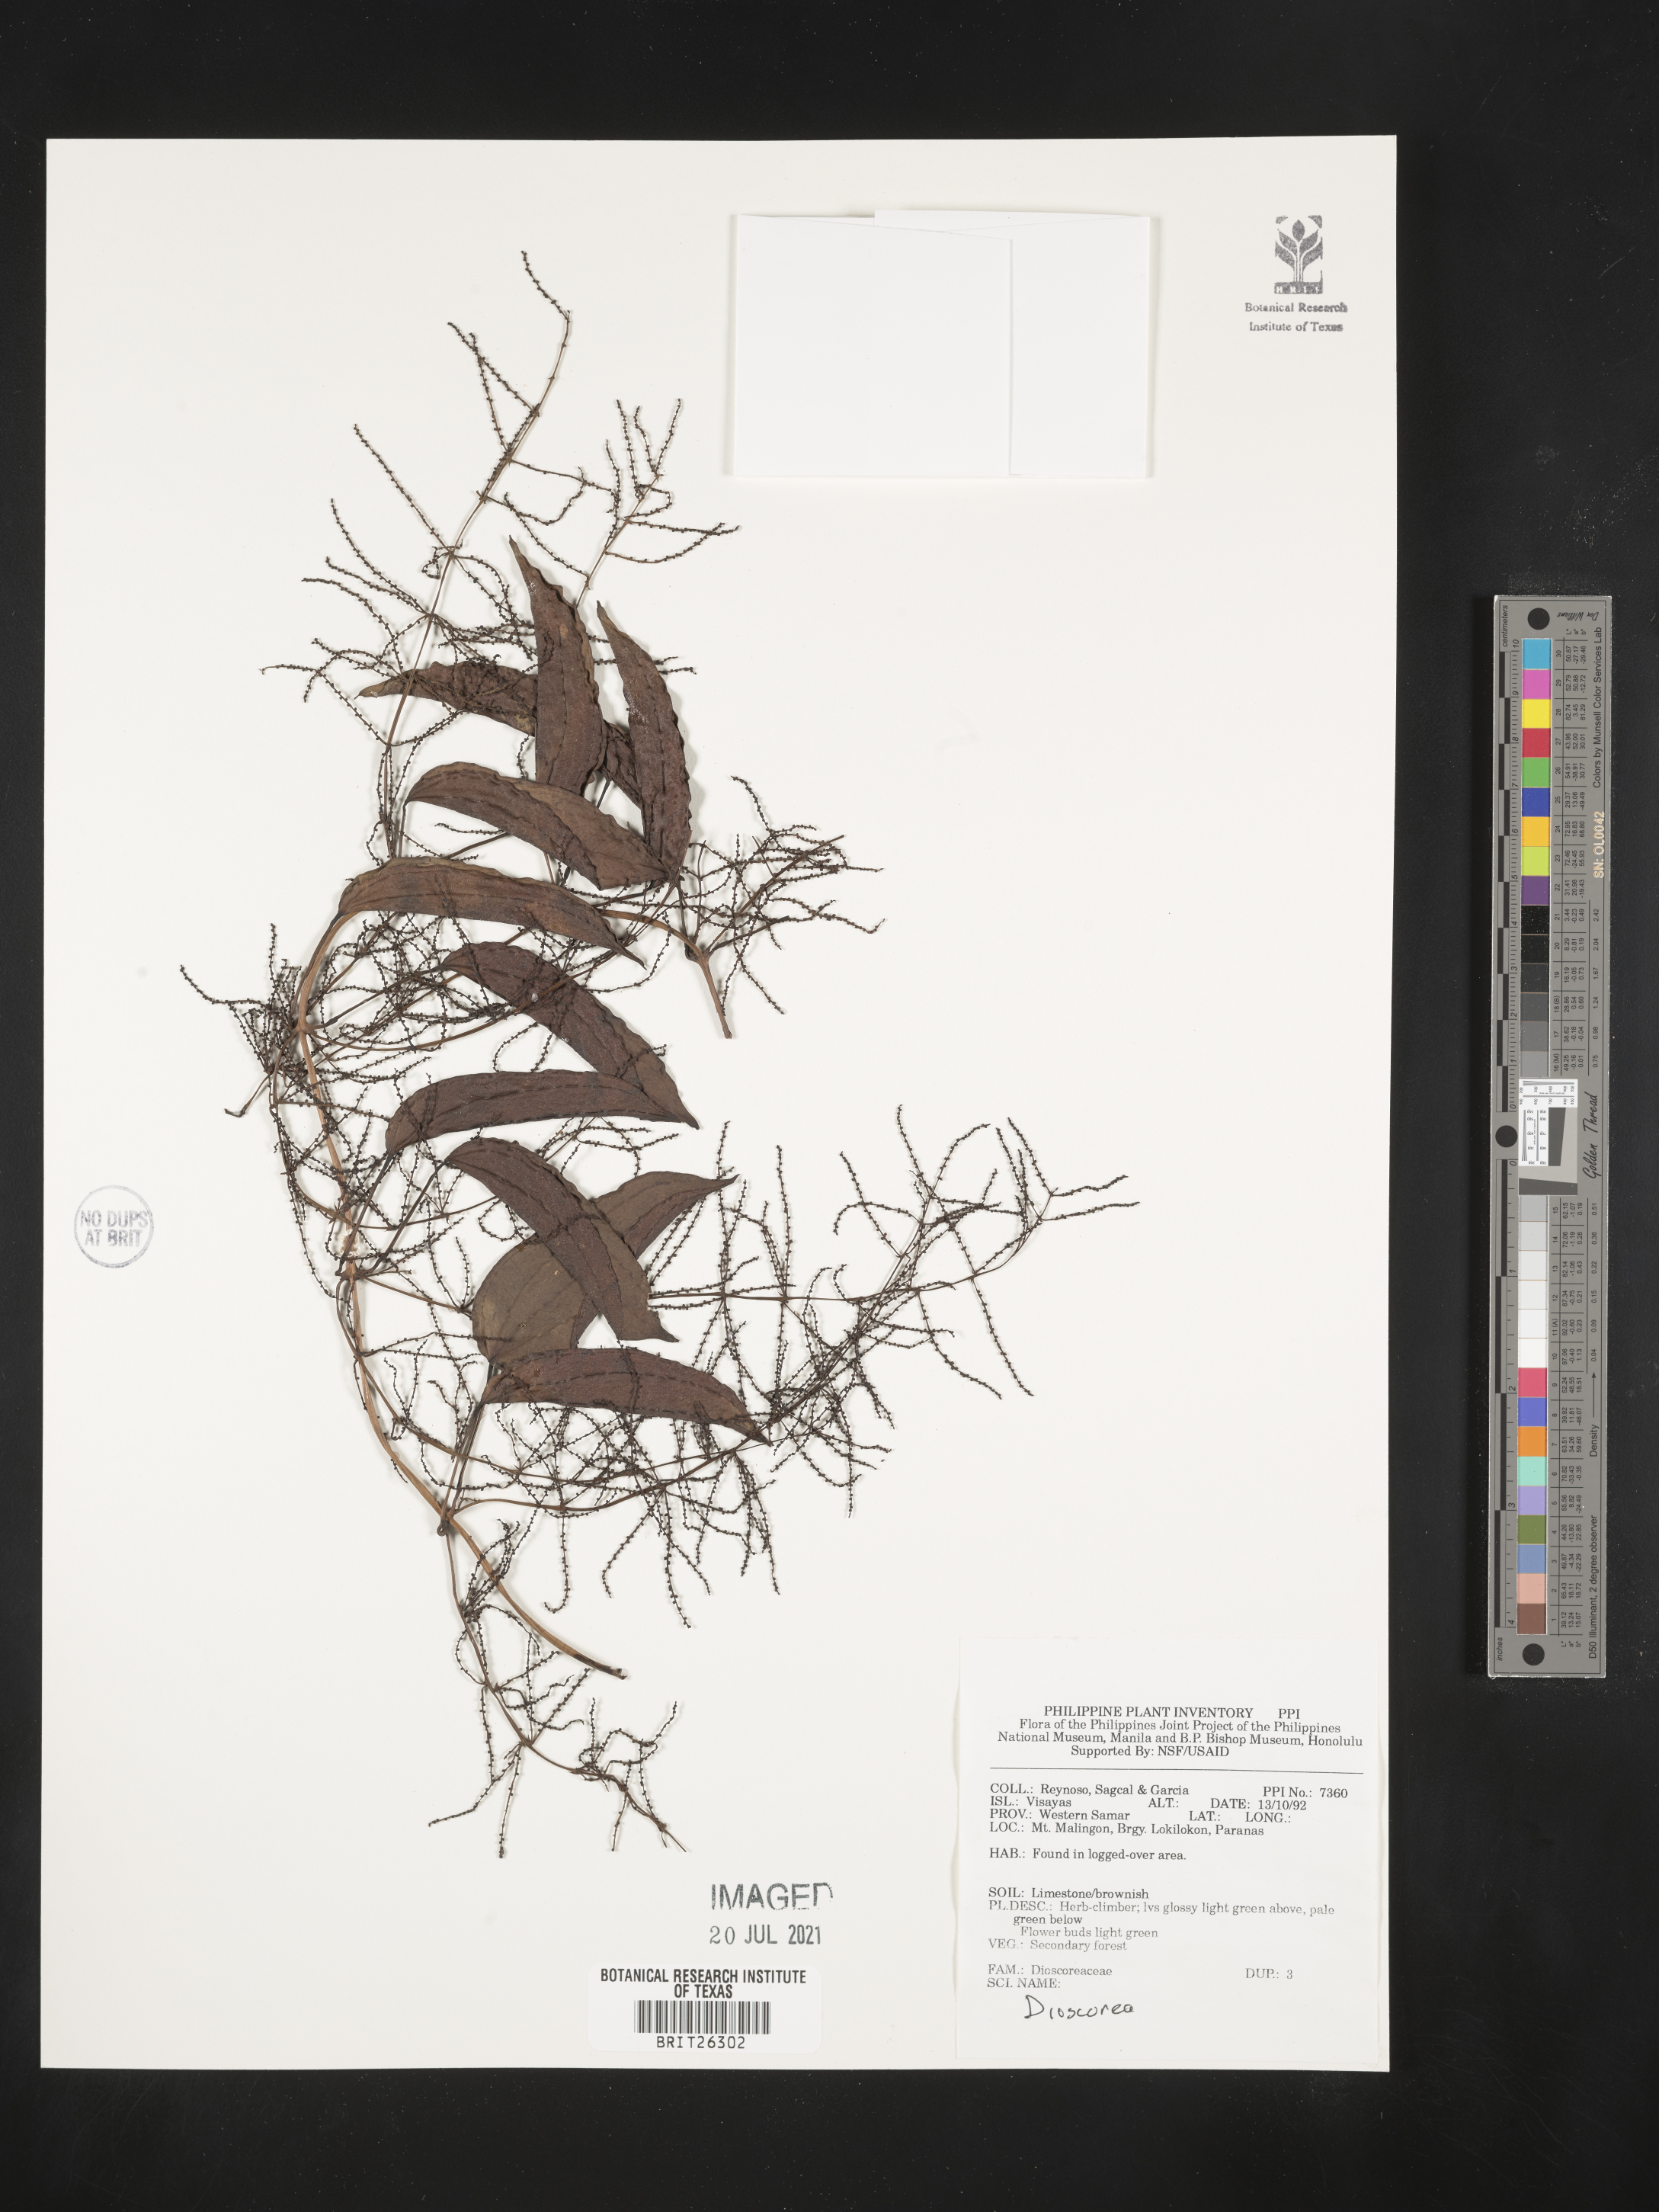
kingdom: Plantae
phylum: Tracheophyta
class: Liliopsida
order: Dioscoreales
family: Dioscoreaceae
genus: Dioscorea
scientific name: Dioscorea
